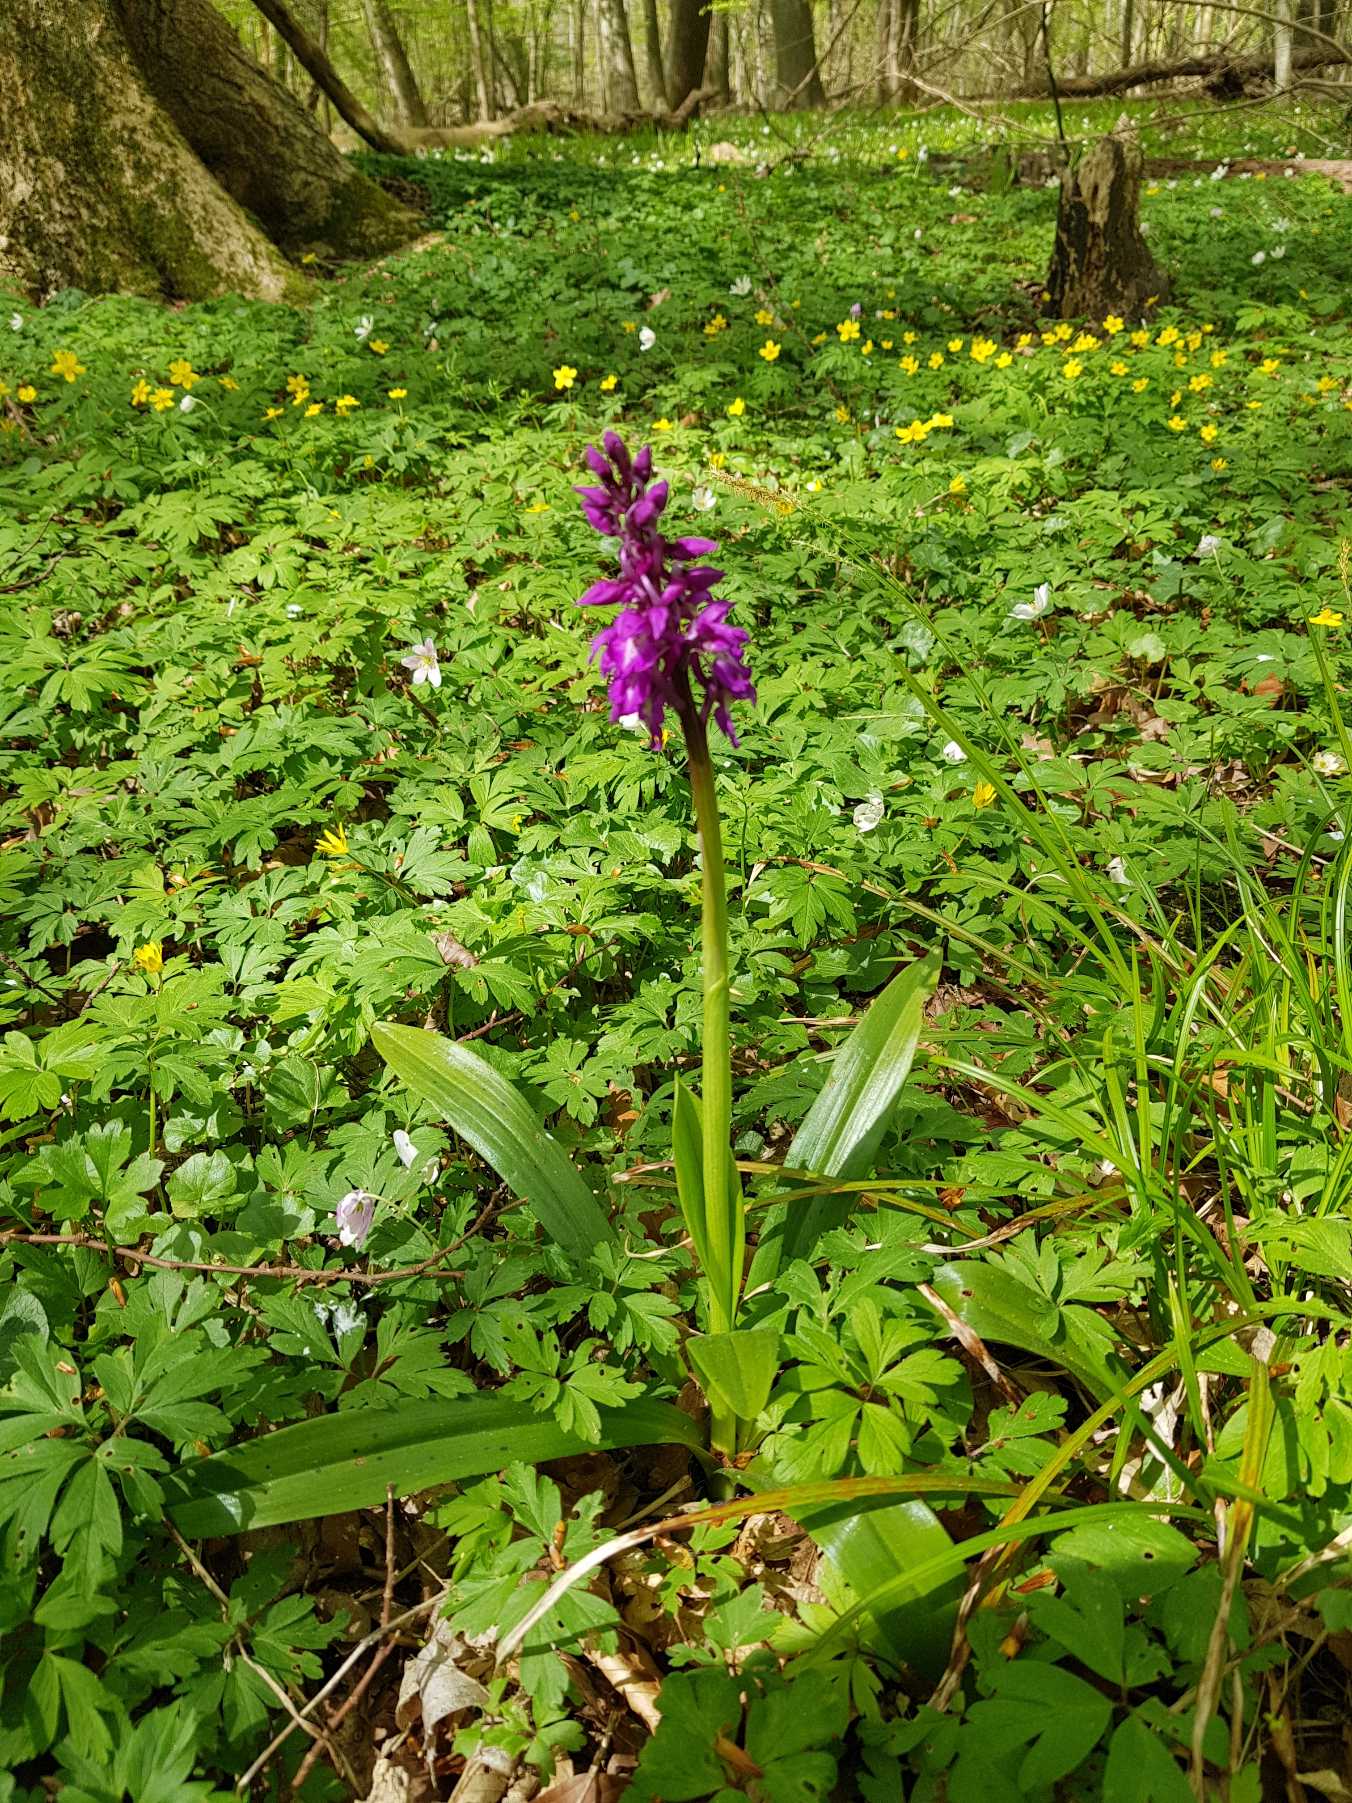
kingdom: Plantae
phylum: Tracheophyta
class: Liliopsida
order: Asparagales
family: Orchidaceae
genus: Orchis
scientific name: Orchis mascula
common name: Tyndakset gøgeurt
